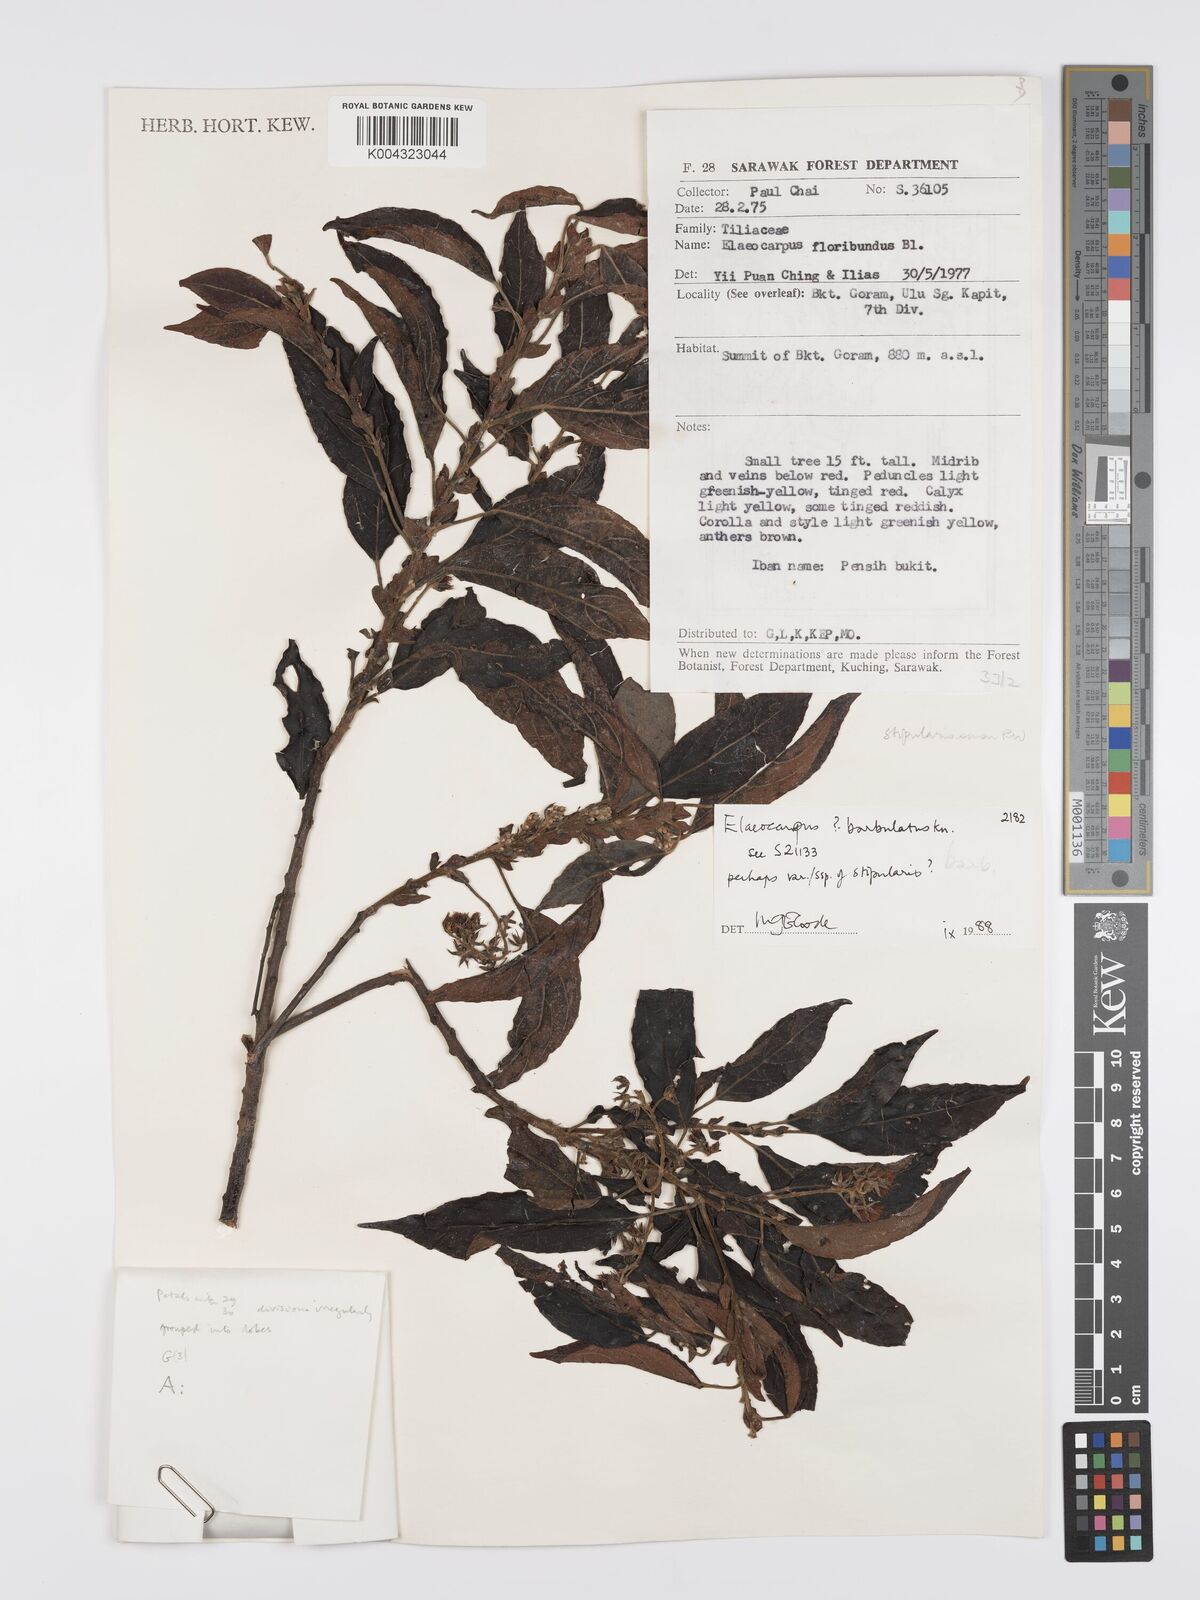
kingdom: Plantae
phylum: Tracheophyta
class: Magnoliopsida
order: Oxalidales
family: Elaeocarpaceae
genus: Elaeocarpus
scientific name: Elaeocarpus barbulatus
